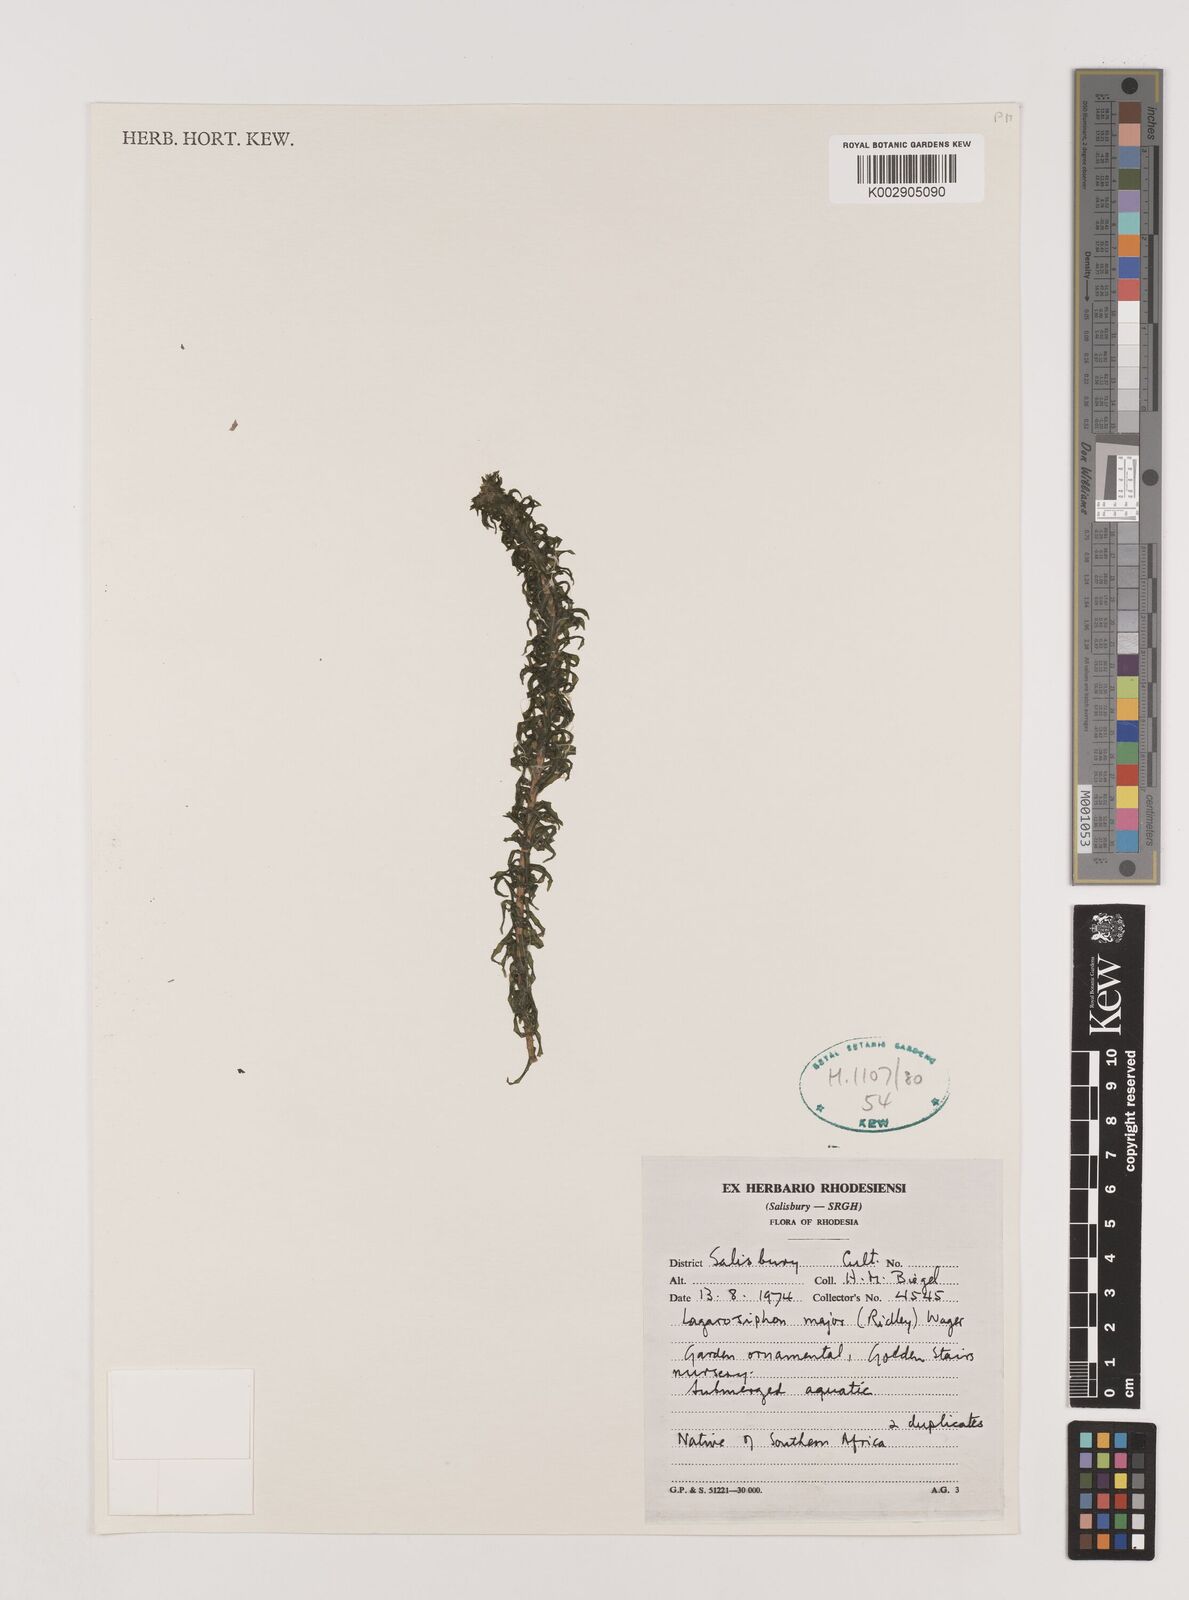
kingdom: Plantae
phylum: Tracheophyta
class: Liliopsida
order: Alismatales
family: Hydrocharitaceae
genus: Lagarosiphon
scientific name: Lagarosiphon major
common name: Curly waterweed
